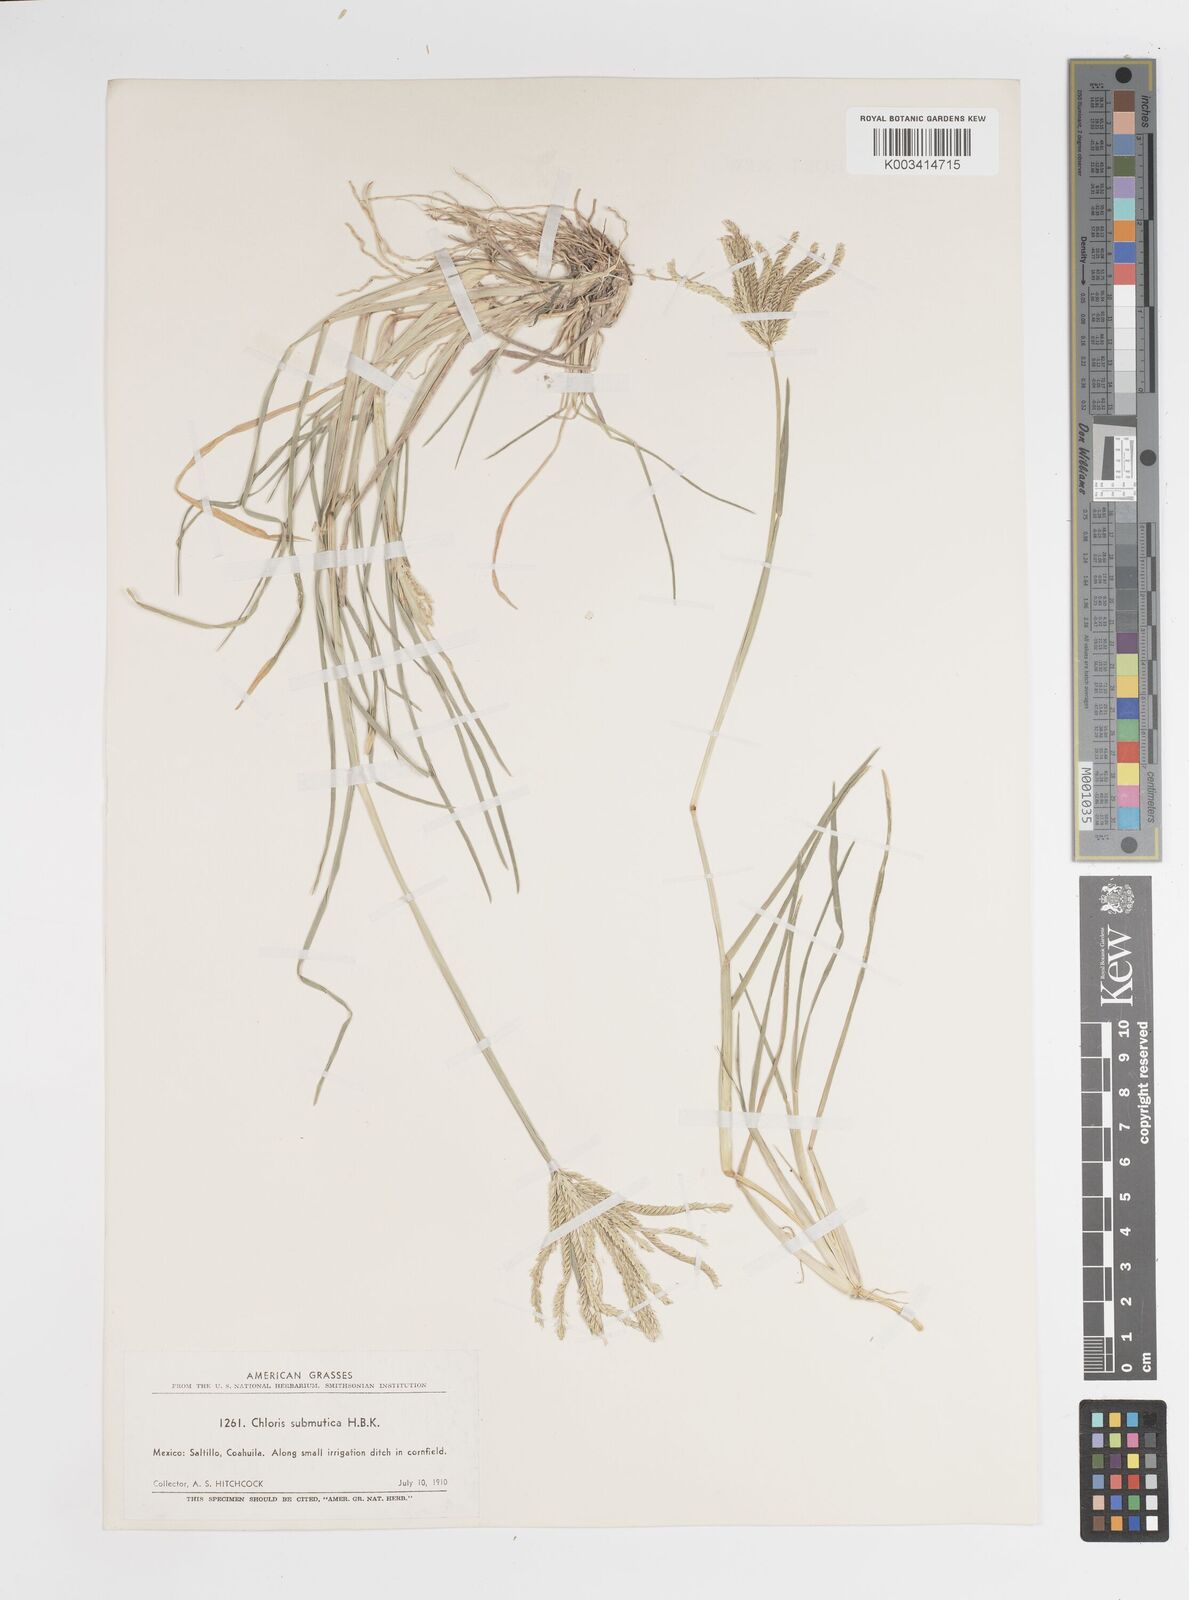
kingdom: Plantae
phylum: Tracheophyta
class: Liliopsida
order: Poales
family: Poaceae
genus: Chloris
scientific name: Chloris submutica
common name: Mexican windmill grass
